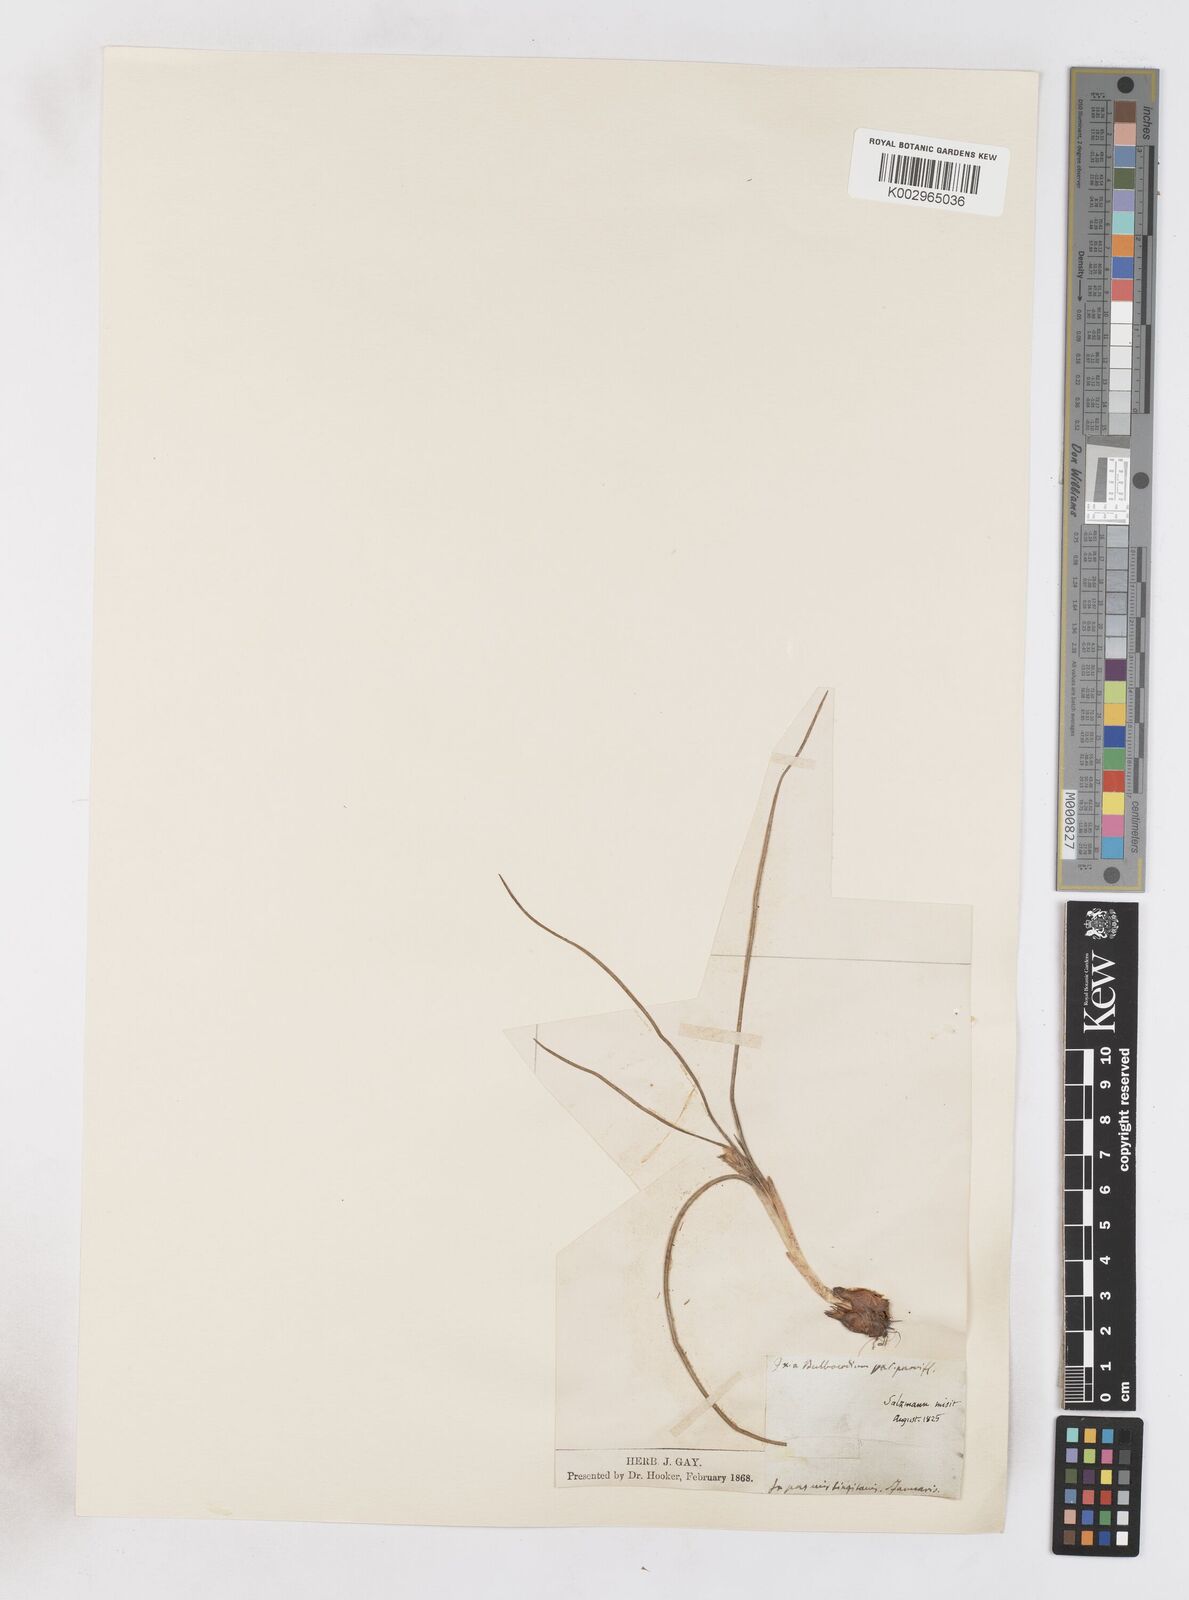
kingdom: Plantae
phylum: Tracheophyta
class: Liliopsida
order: Asparagales
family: Iridaceae
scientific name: Iridaceae
